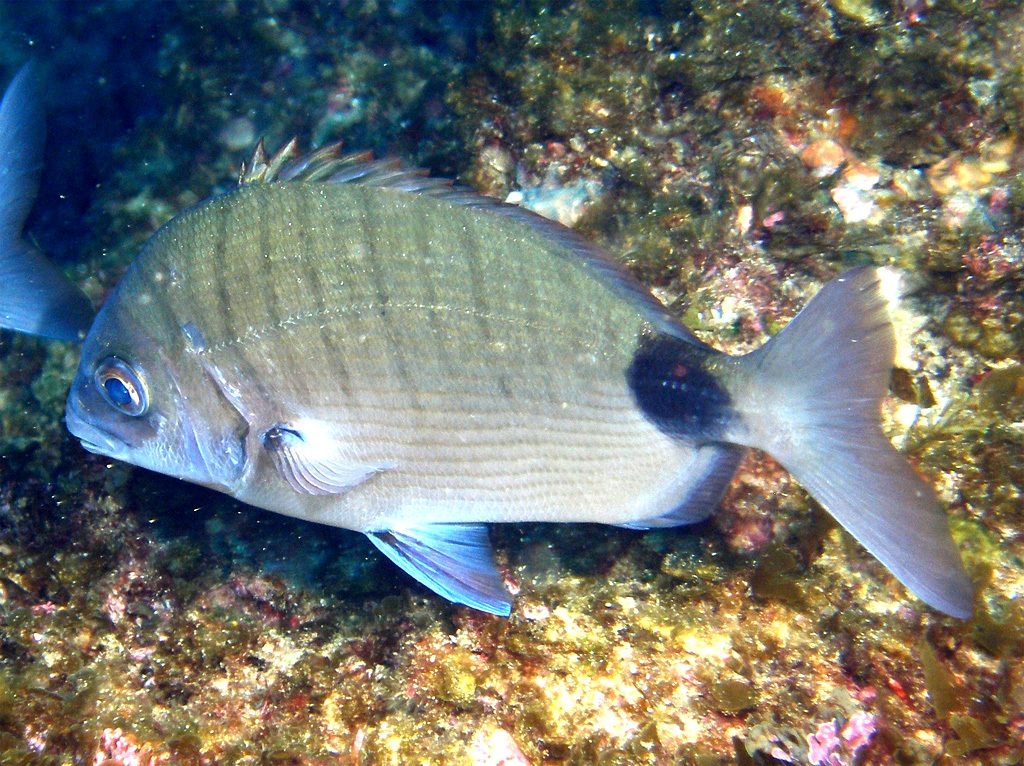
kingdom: Animalia
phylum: Chordata
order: Perciformes
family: Sparidae
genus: Diplodus
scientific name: Diplodus capensis
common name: Blacktail
